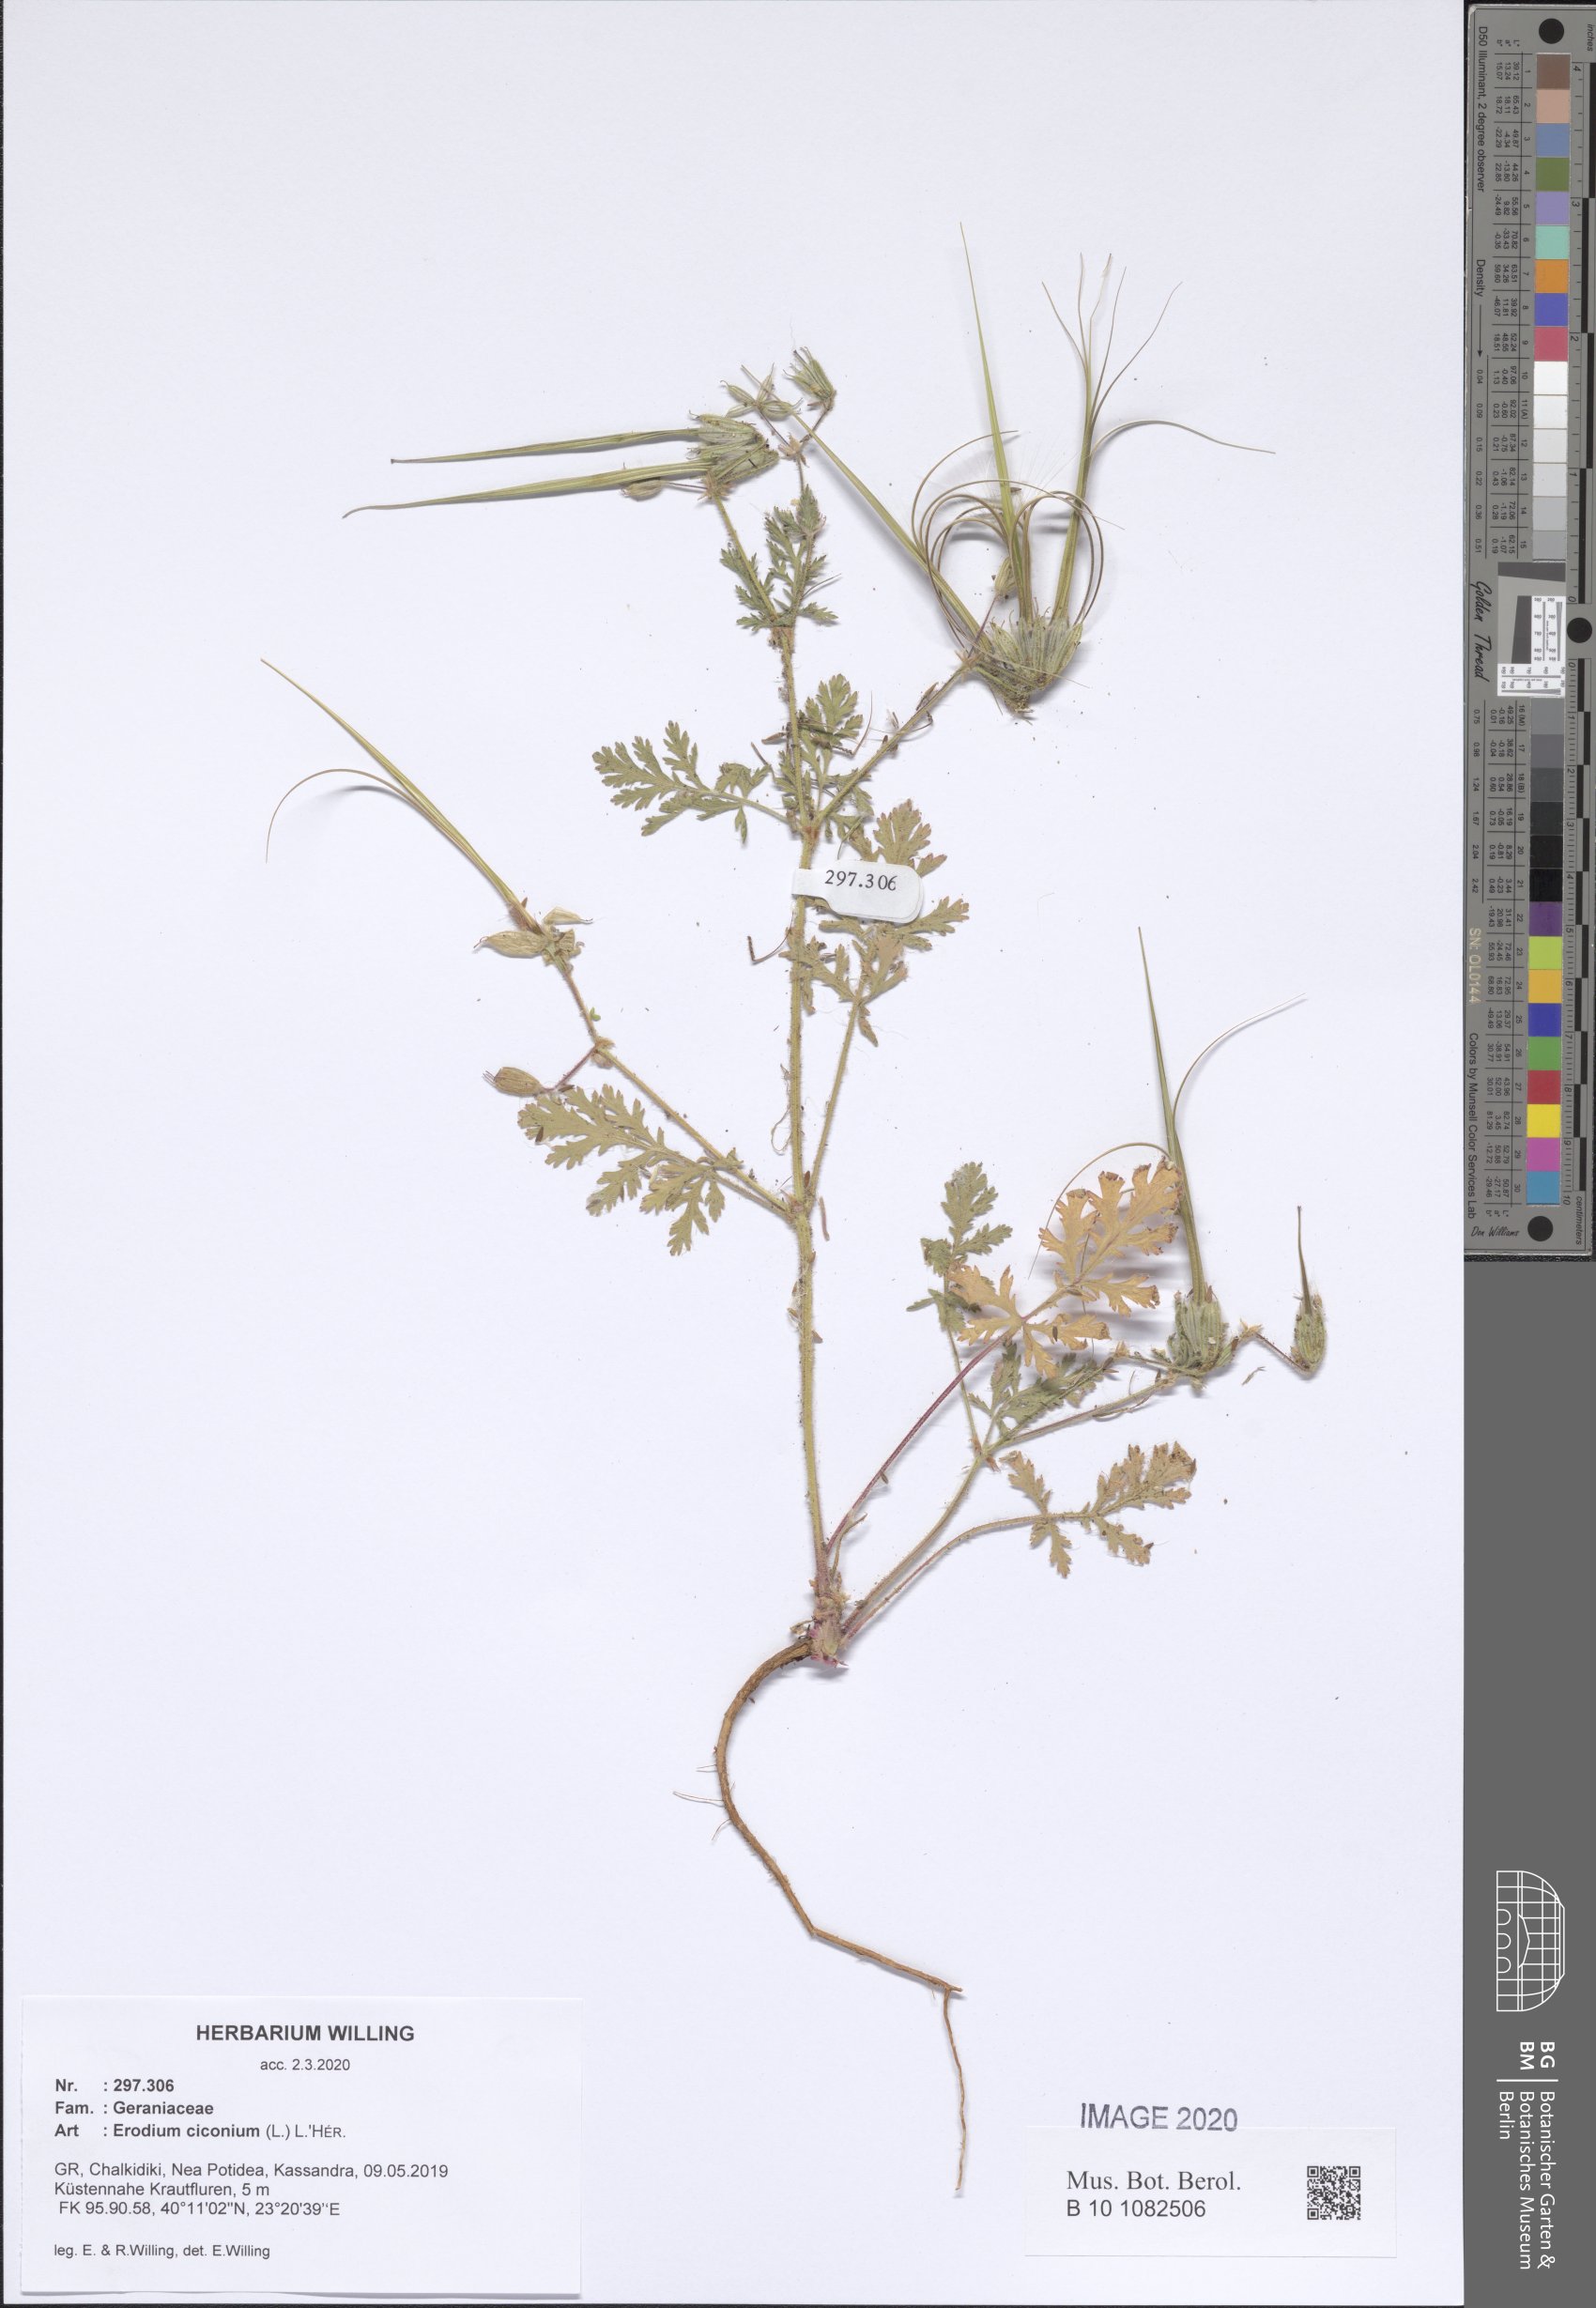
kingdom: Plantae
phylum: Tracheophyta
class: Magnoliopsida
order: Geraniales
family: Geraniaceae
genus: Erodium
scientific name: Erodium ciconium
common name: Common stork's bill
